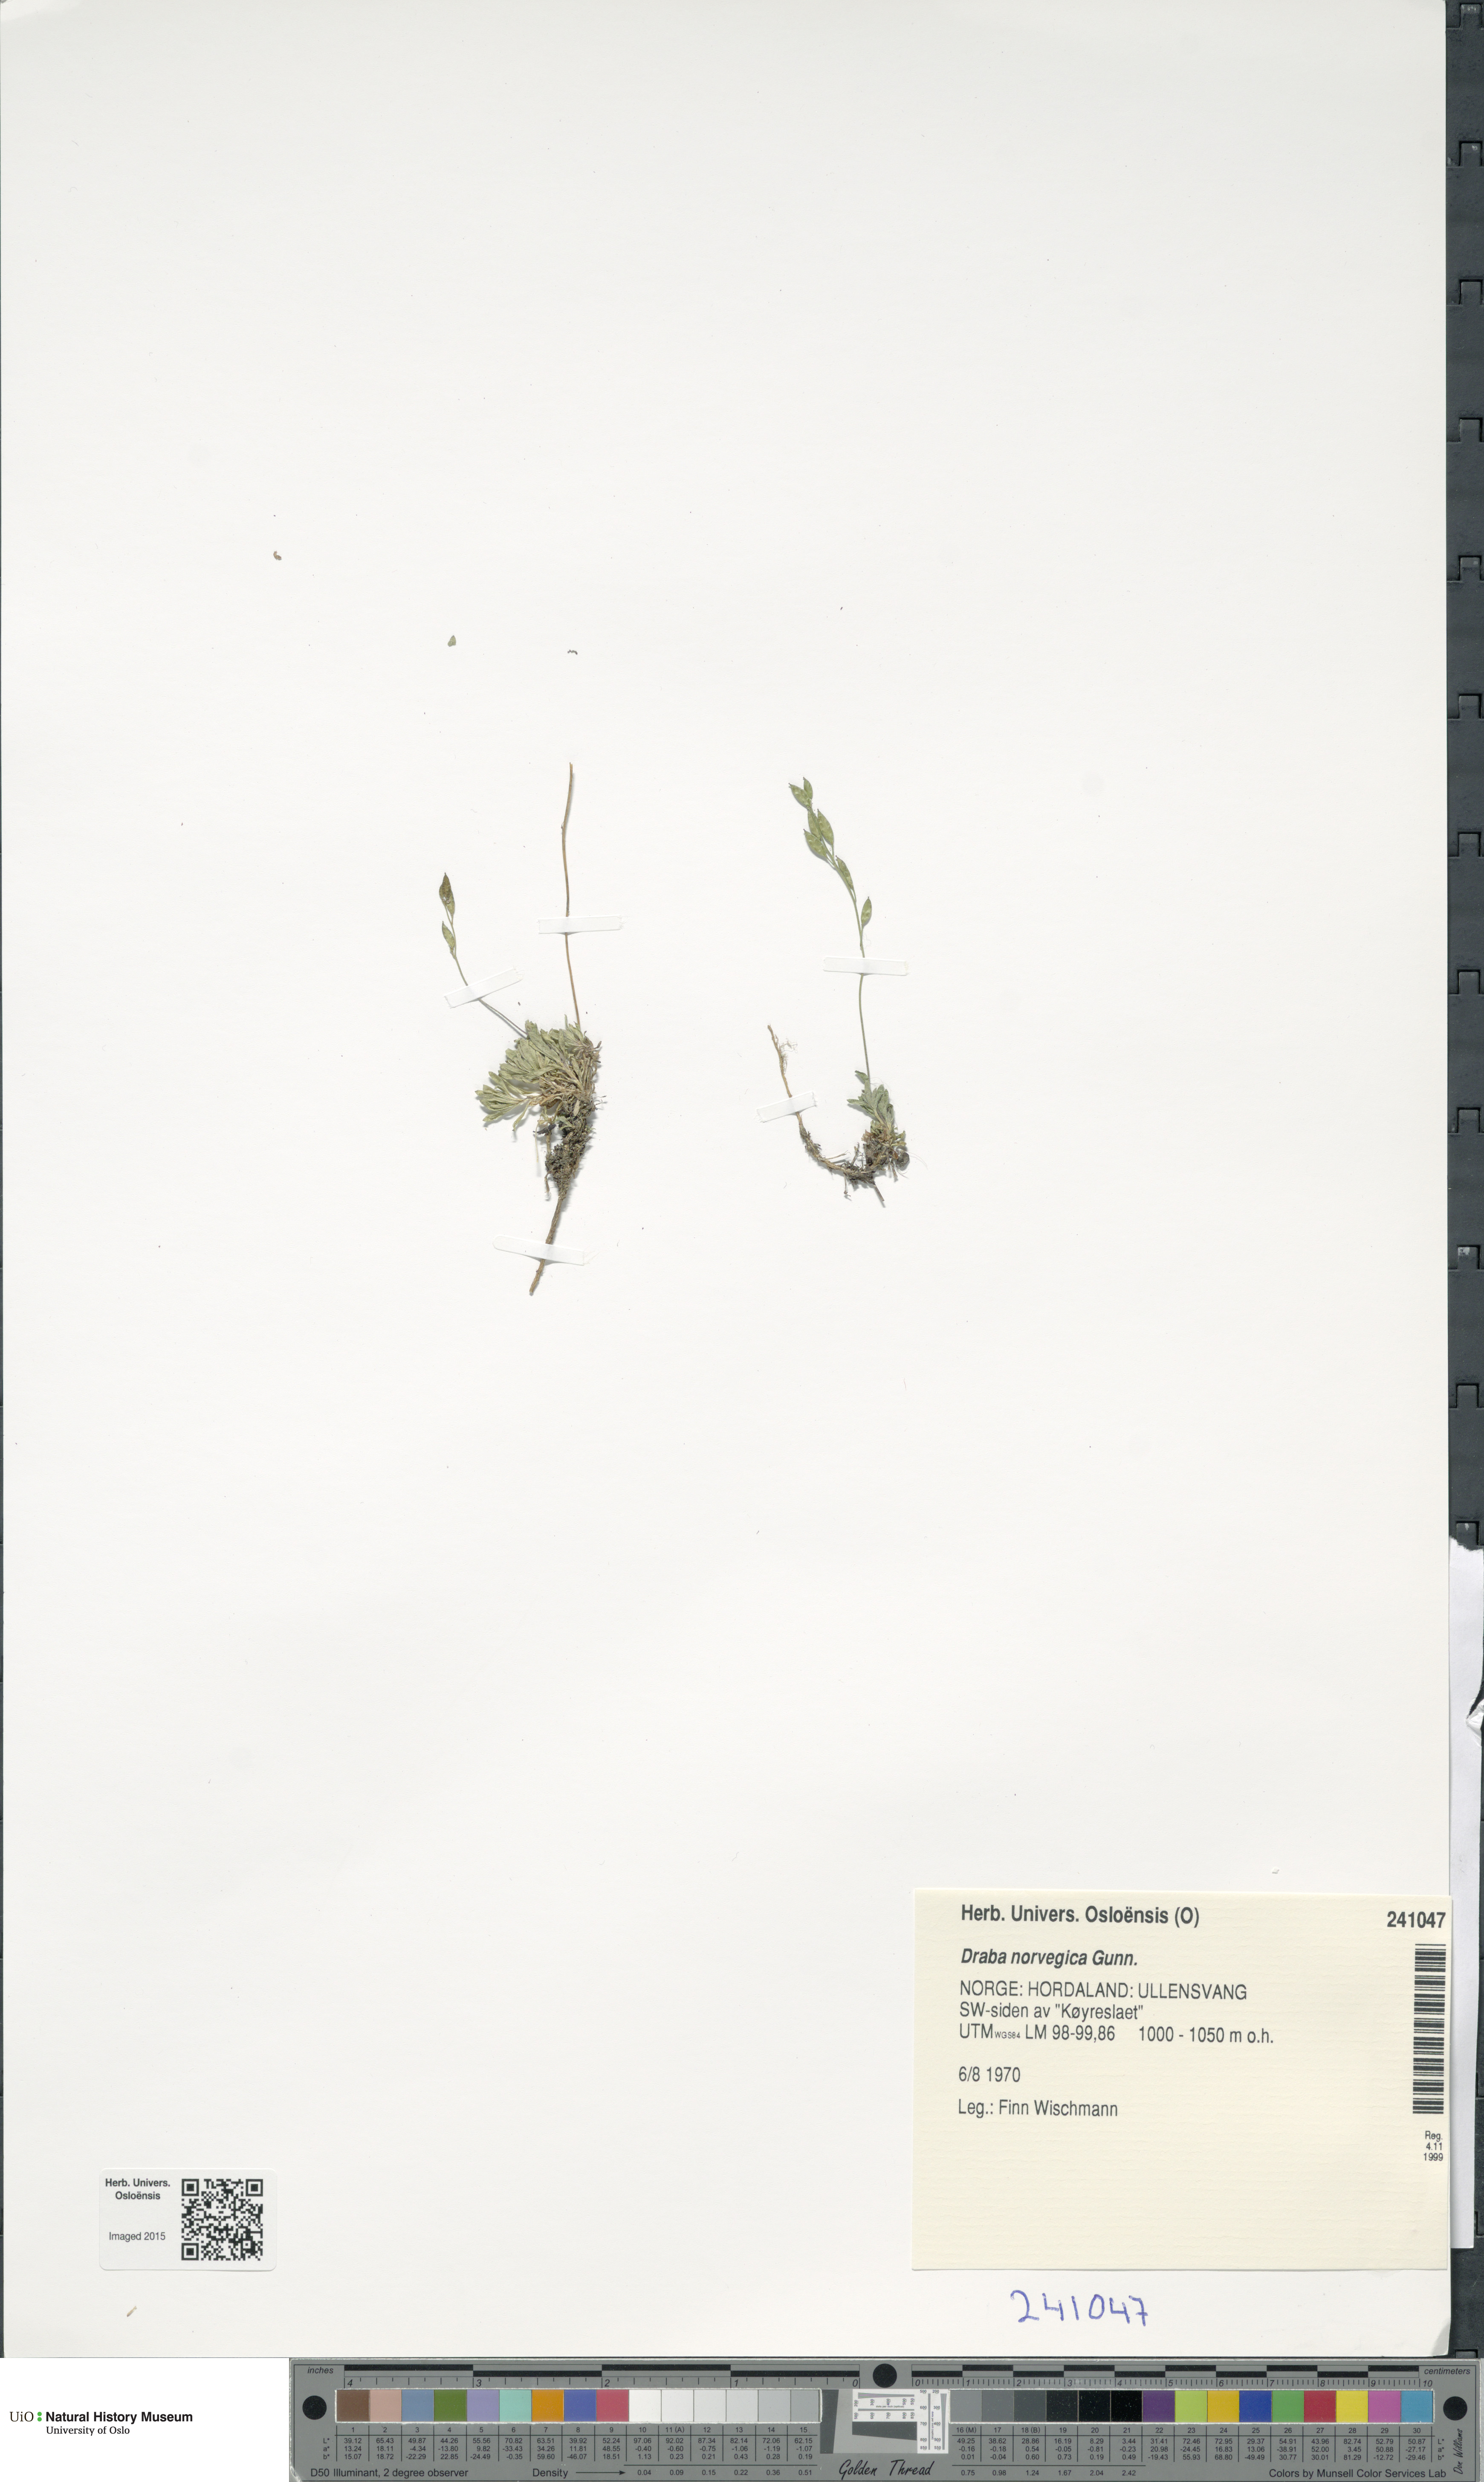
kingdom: Plantae
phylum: Tracheophyta
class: Magnoliopsida
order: Brassicales
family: Brassicaceae
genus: Draba
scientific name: Draba norvegica
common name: Rock whitlowgrass
